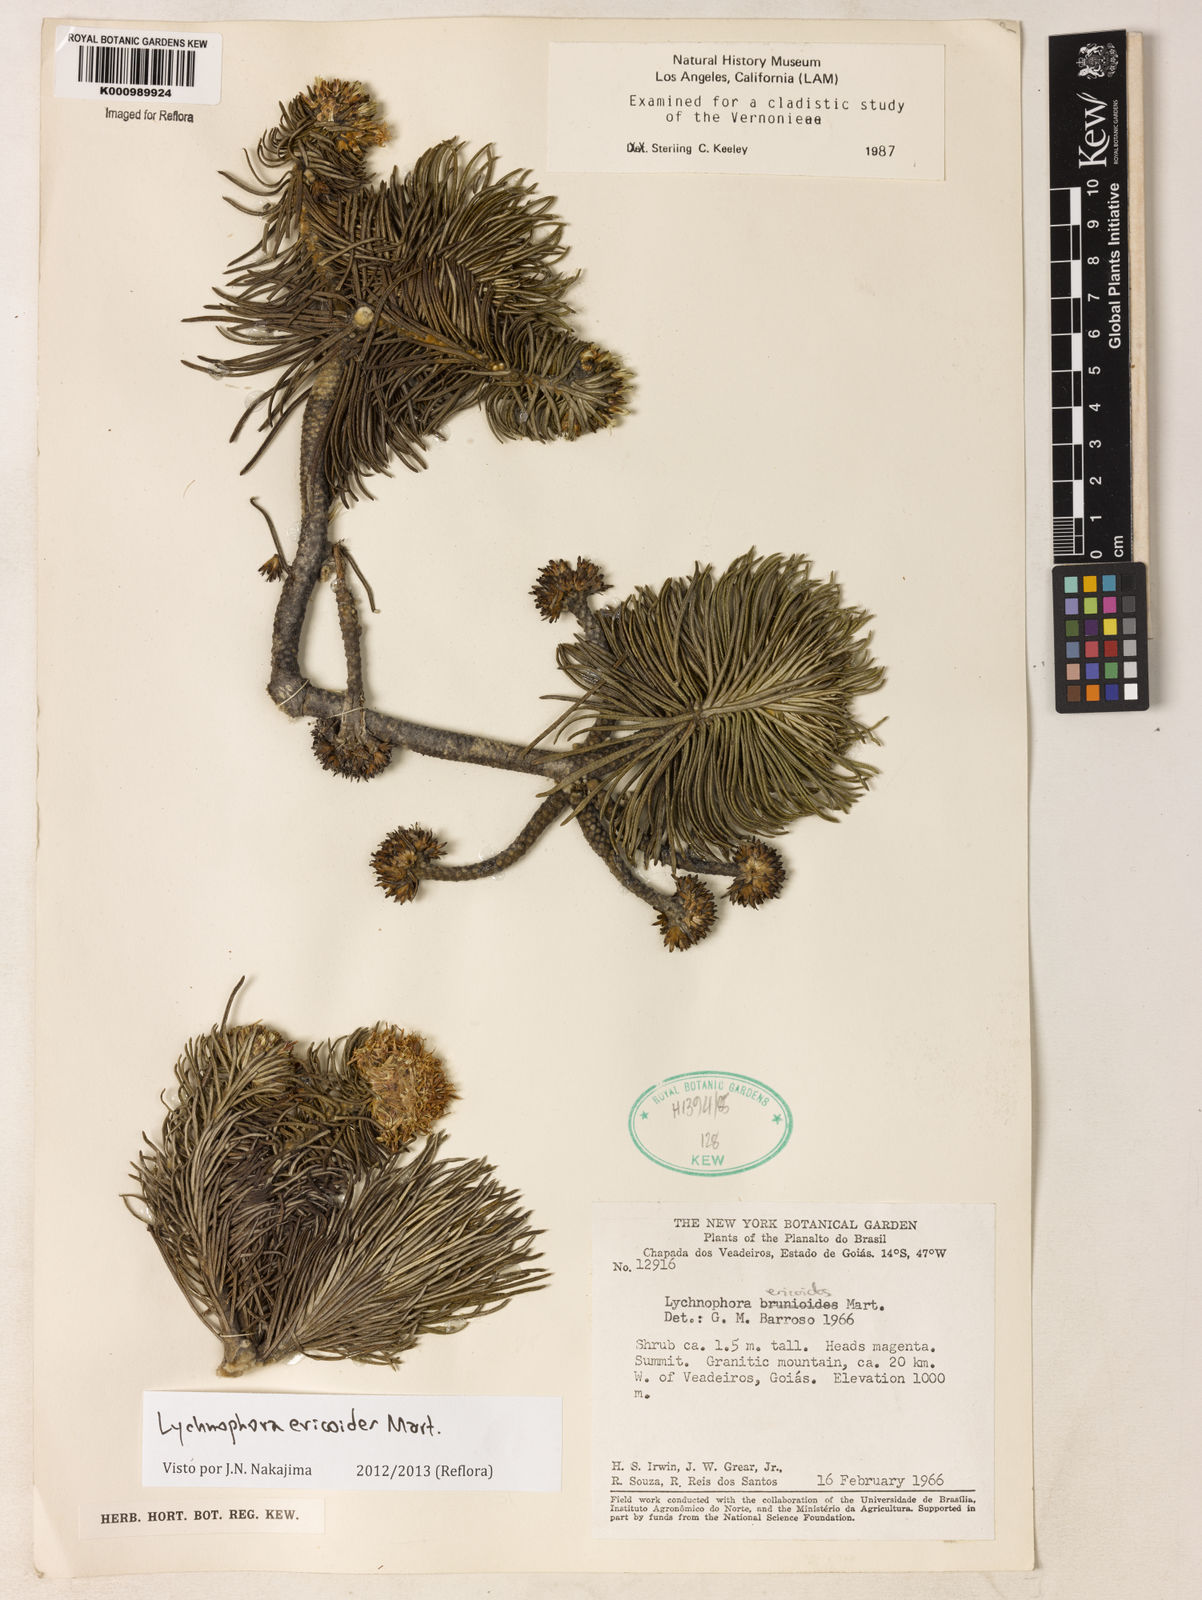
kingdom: Plantae
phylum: Tracheophyta
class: Magnoliopsida
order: Asterales
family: Asteraceae
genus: Lychnophora
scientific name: Lychnophora ericoides
